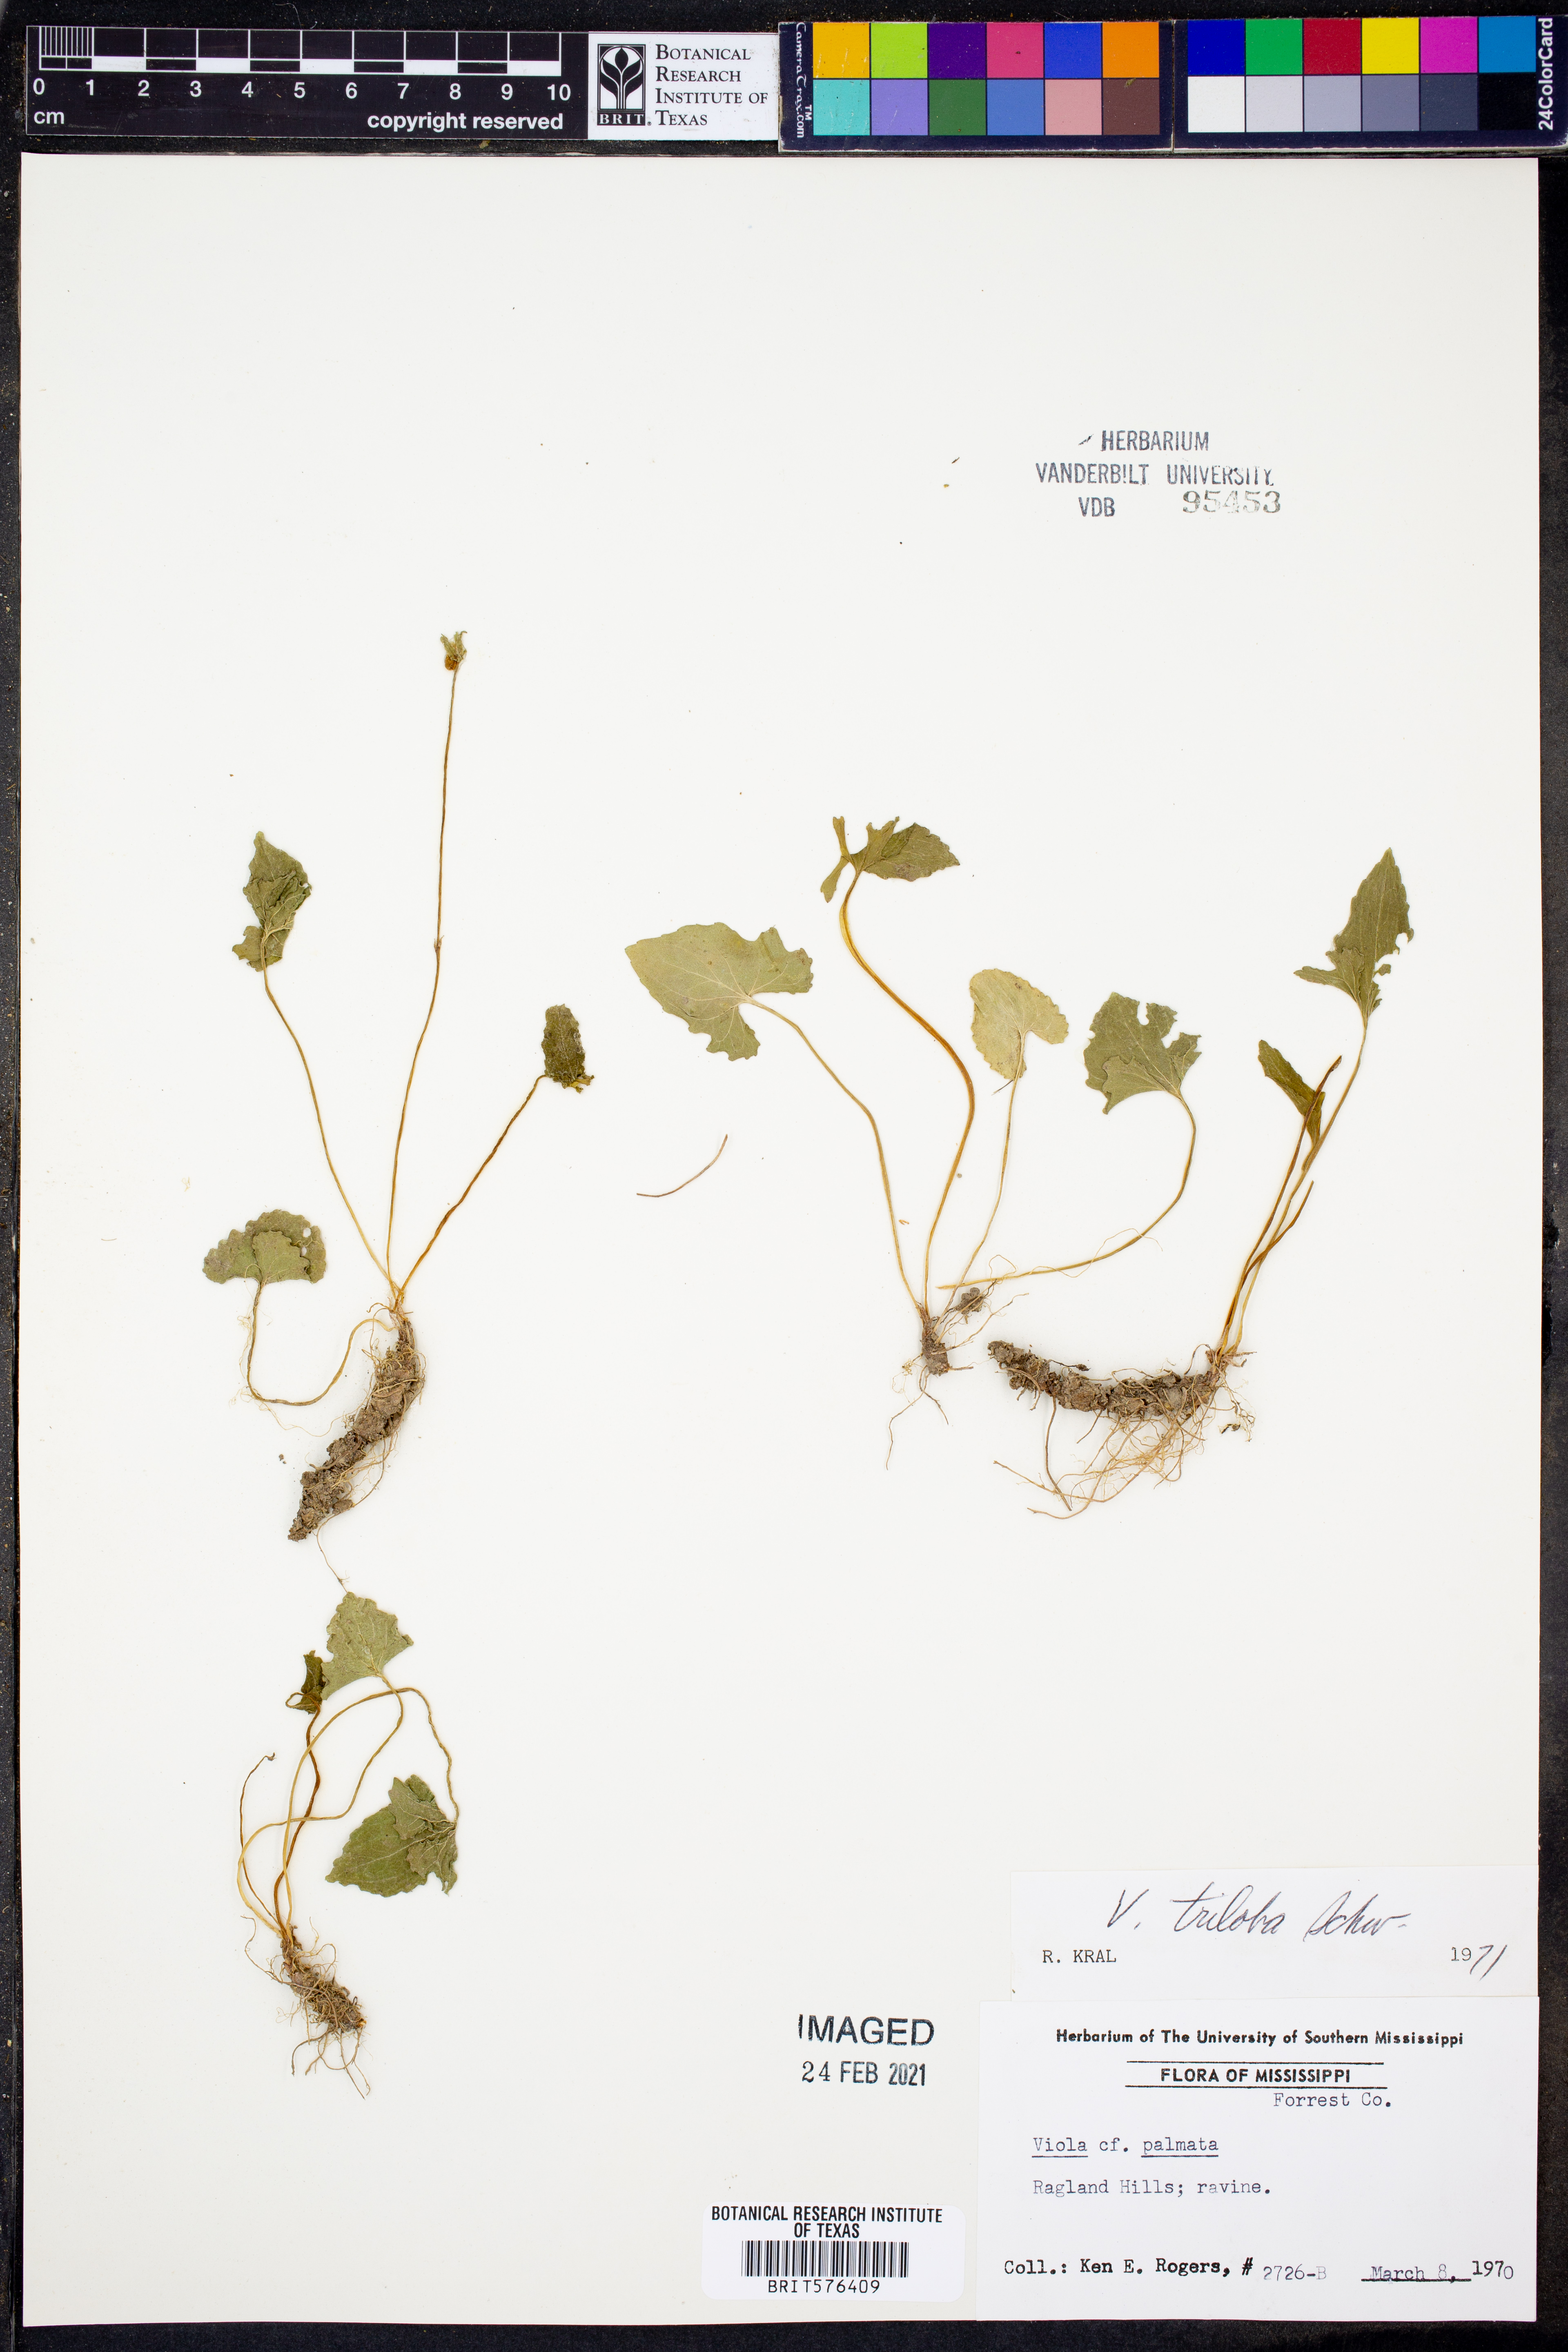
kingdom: Plantae
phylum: Tracheophyta
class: Magnoliopsida
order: Malpighiales
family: Violaceae
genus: Viola
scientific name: Viola palmata
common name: Early blue violet
